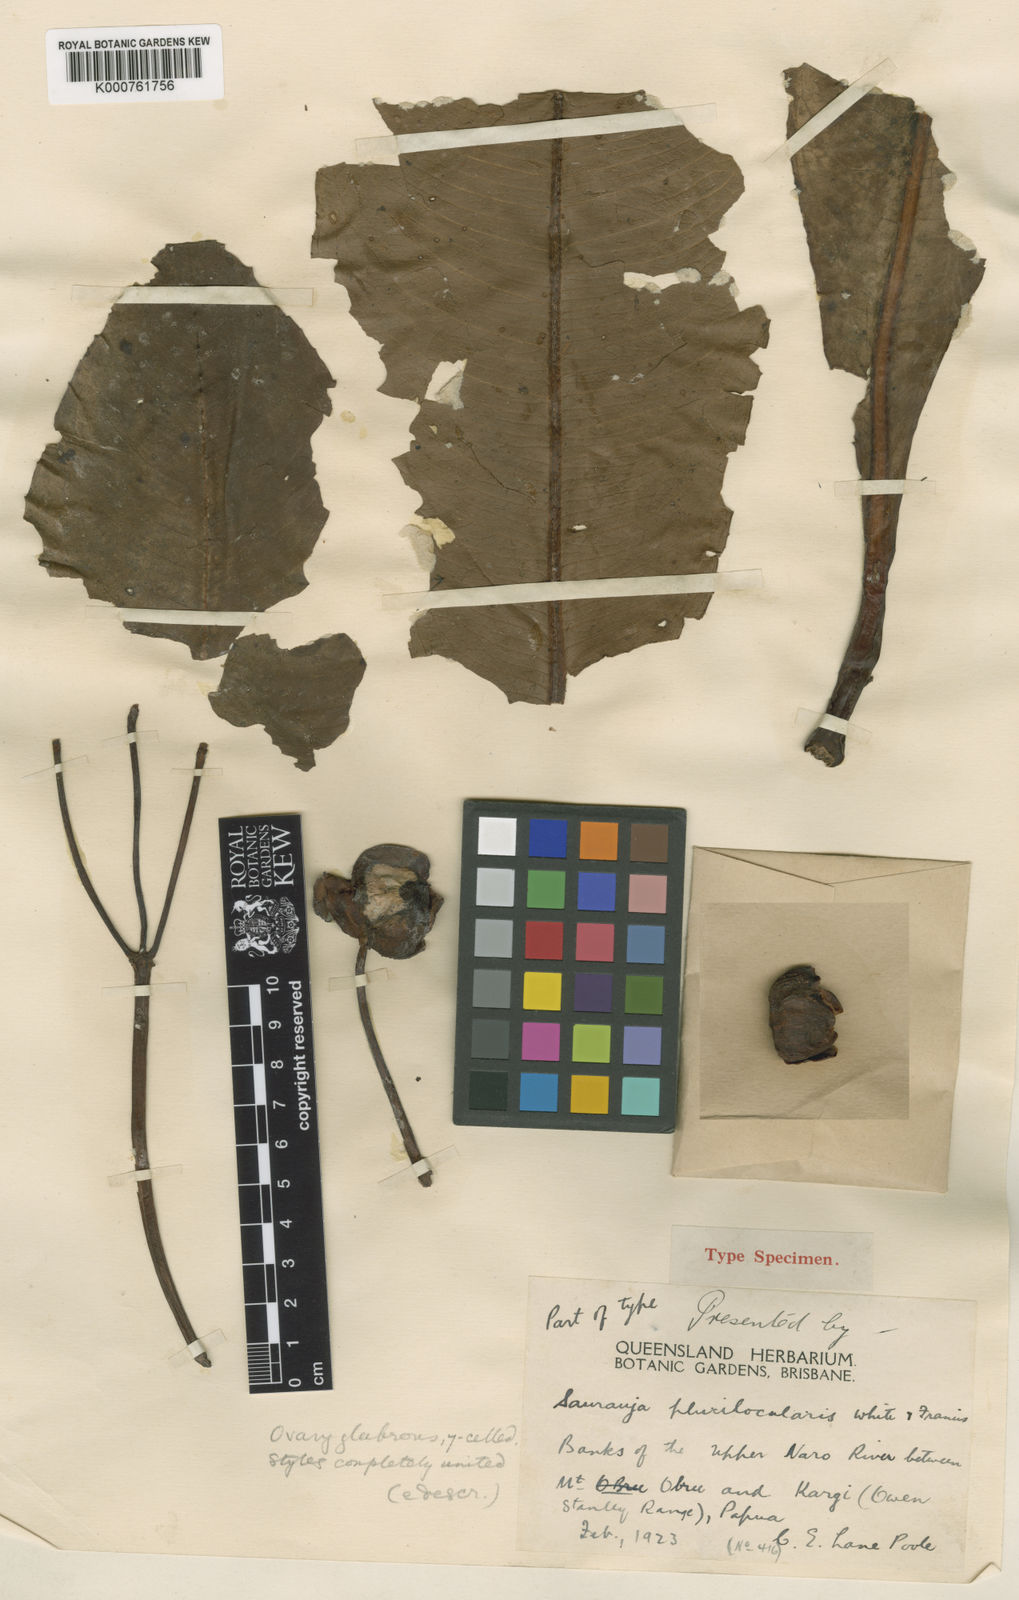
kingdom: Plantae
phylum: Tracheophyta
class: Magnoliopsida
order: Ericales
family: Actinidiaceae
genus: Saurauia
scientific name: Saurauia
